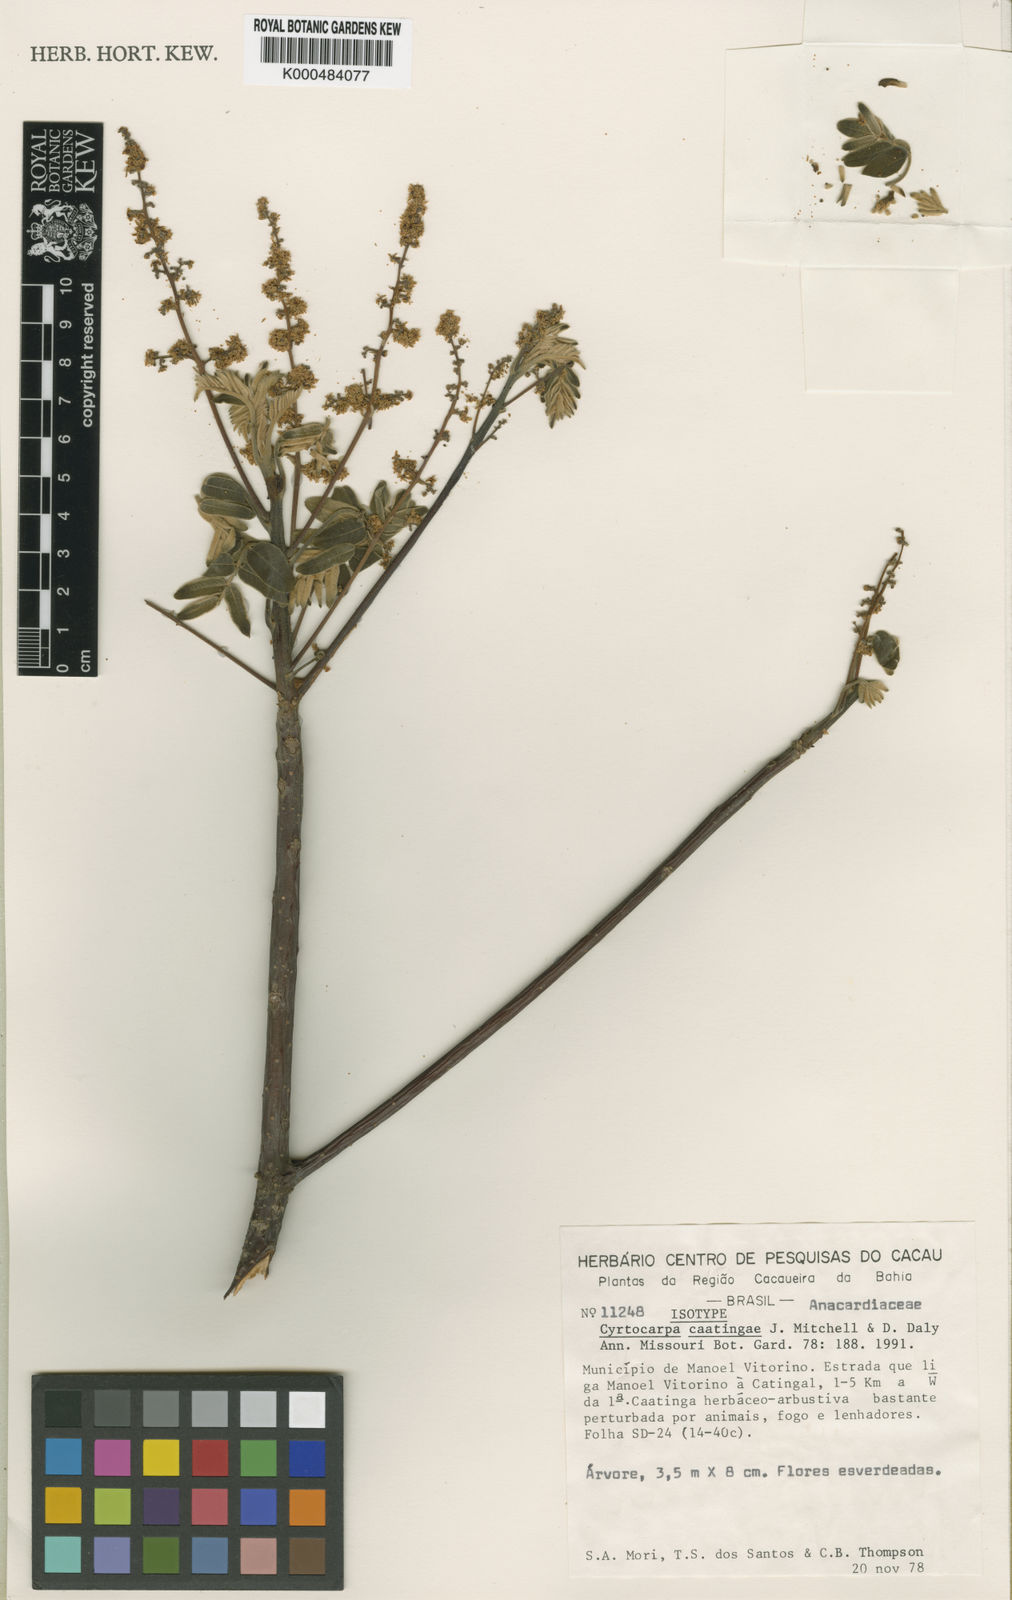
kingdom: Plantae
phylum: Tracheophyta
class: Magnoliopsida
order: Sapindales
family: Anacardiaceae
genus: Cyrtocarpa
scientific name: Cyrtocarpa caatingae
